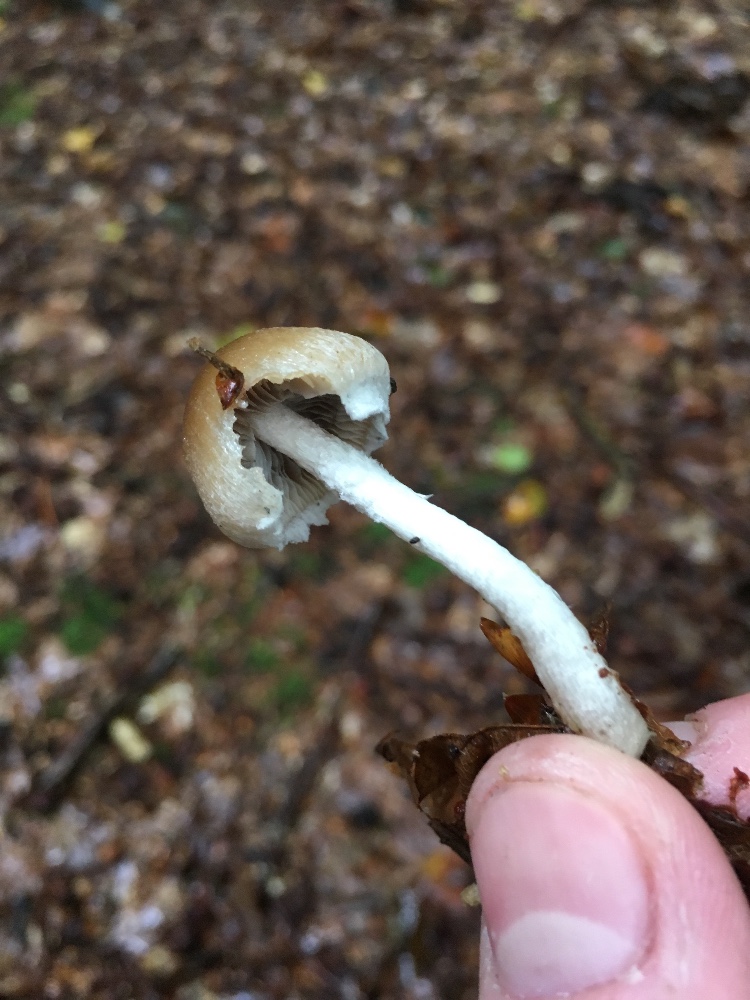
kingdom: Fungi
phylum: Basidiomycota
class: Agaricomycetes
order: Agaricales
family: Psathyrellaceae
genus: Psathyrella
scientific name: Psathyrella fibrillosa
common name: almindelig mørkhat
